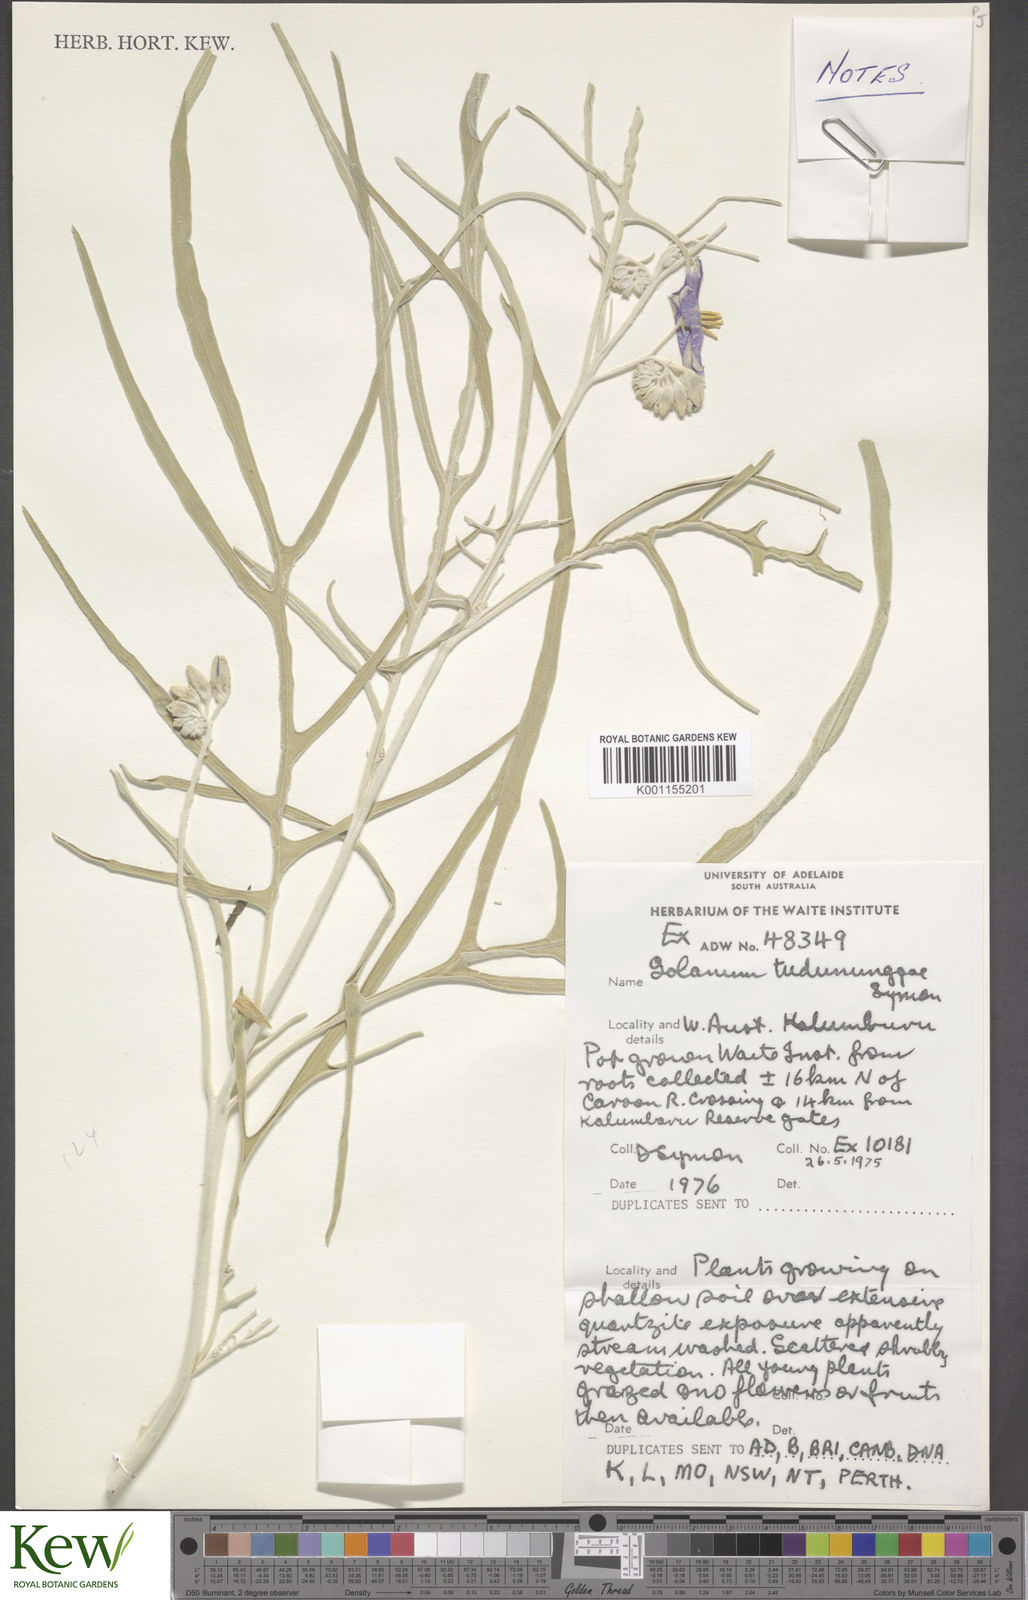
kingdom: Plantae
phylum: Tracheophyta
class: Magnoliopsida
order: Solanales
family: Solanaceae
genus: Solanum
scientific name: Solanum tudununggae
